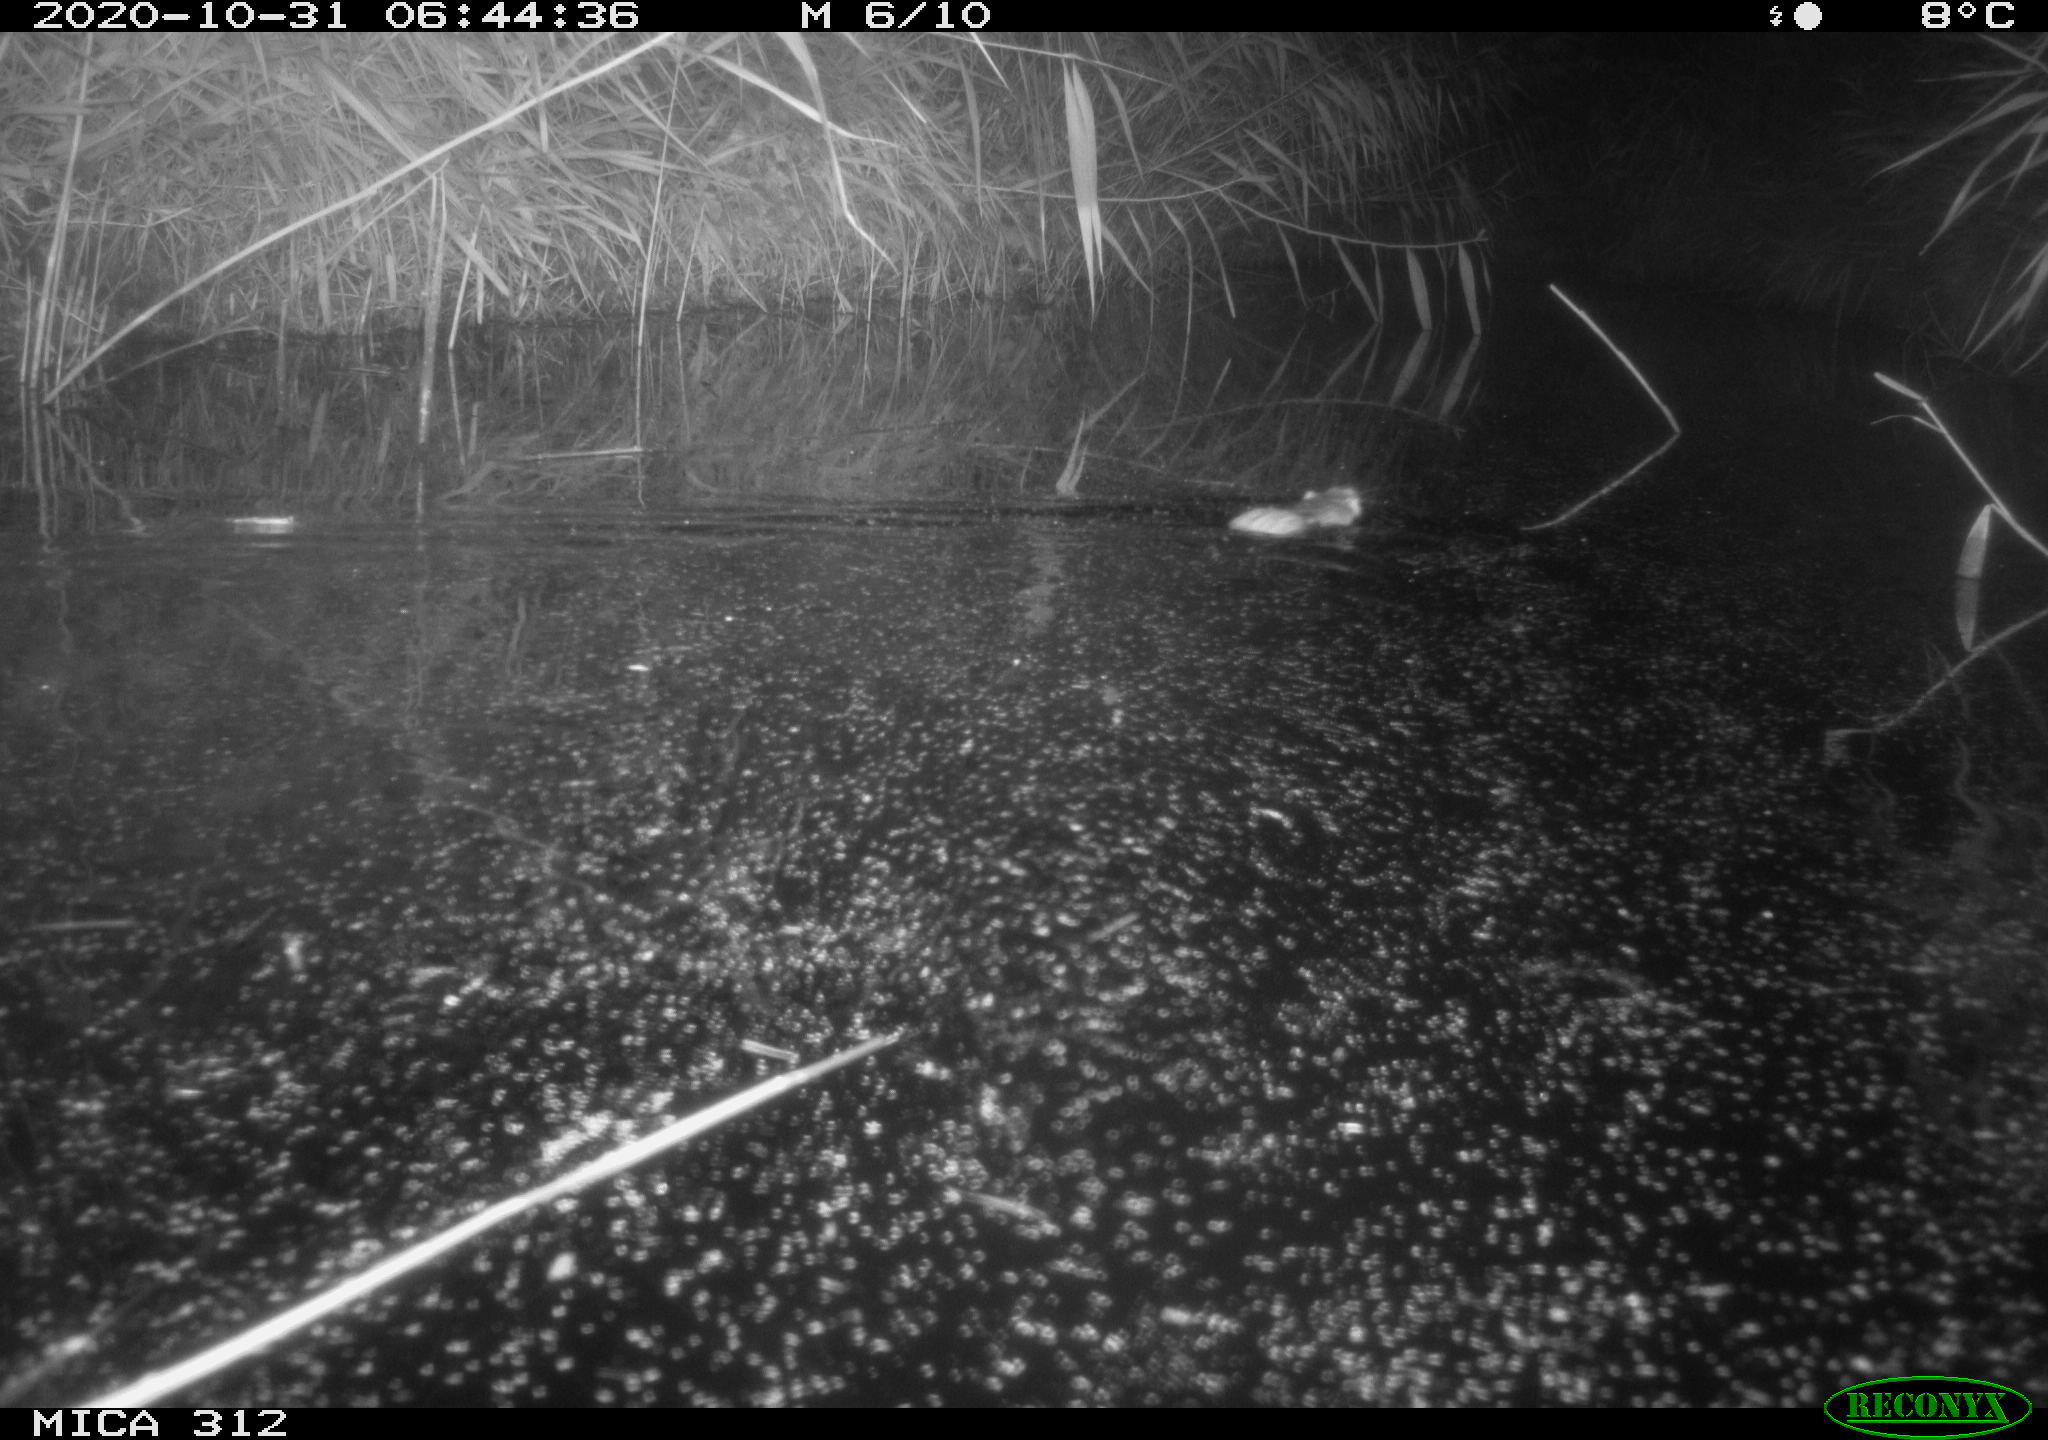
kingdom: Animalia
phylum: Chordata
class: Mammalia
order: Rodentia
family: Muridae
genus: Rattus
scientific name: Rattus norvegicus
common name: Brown rat
